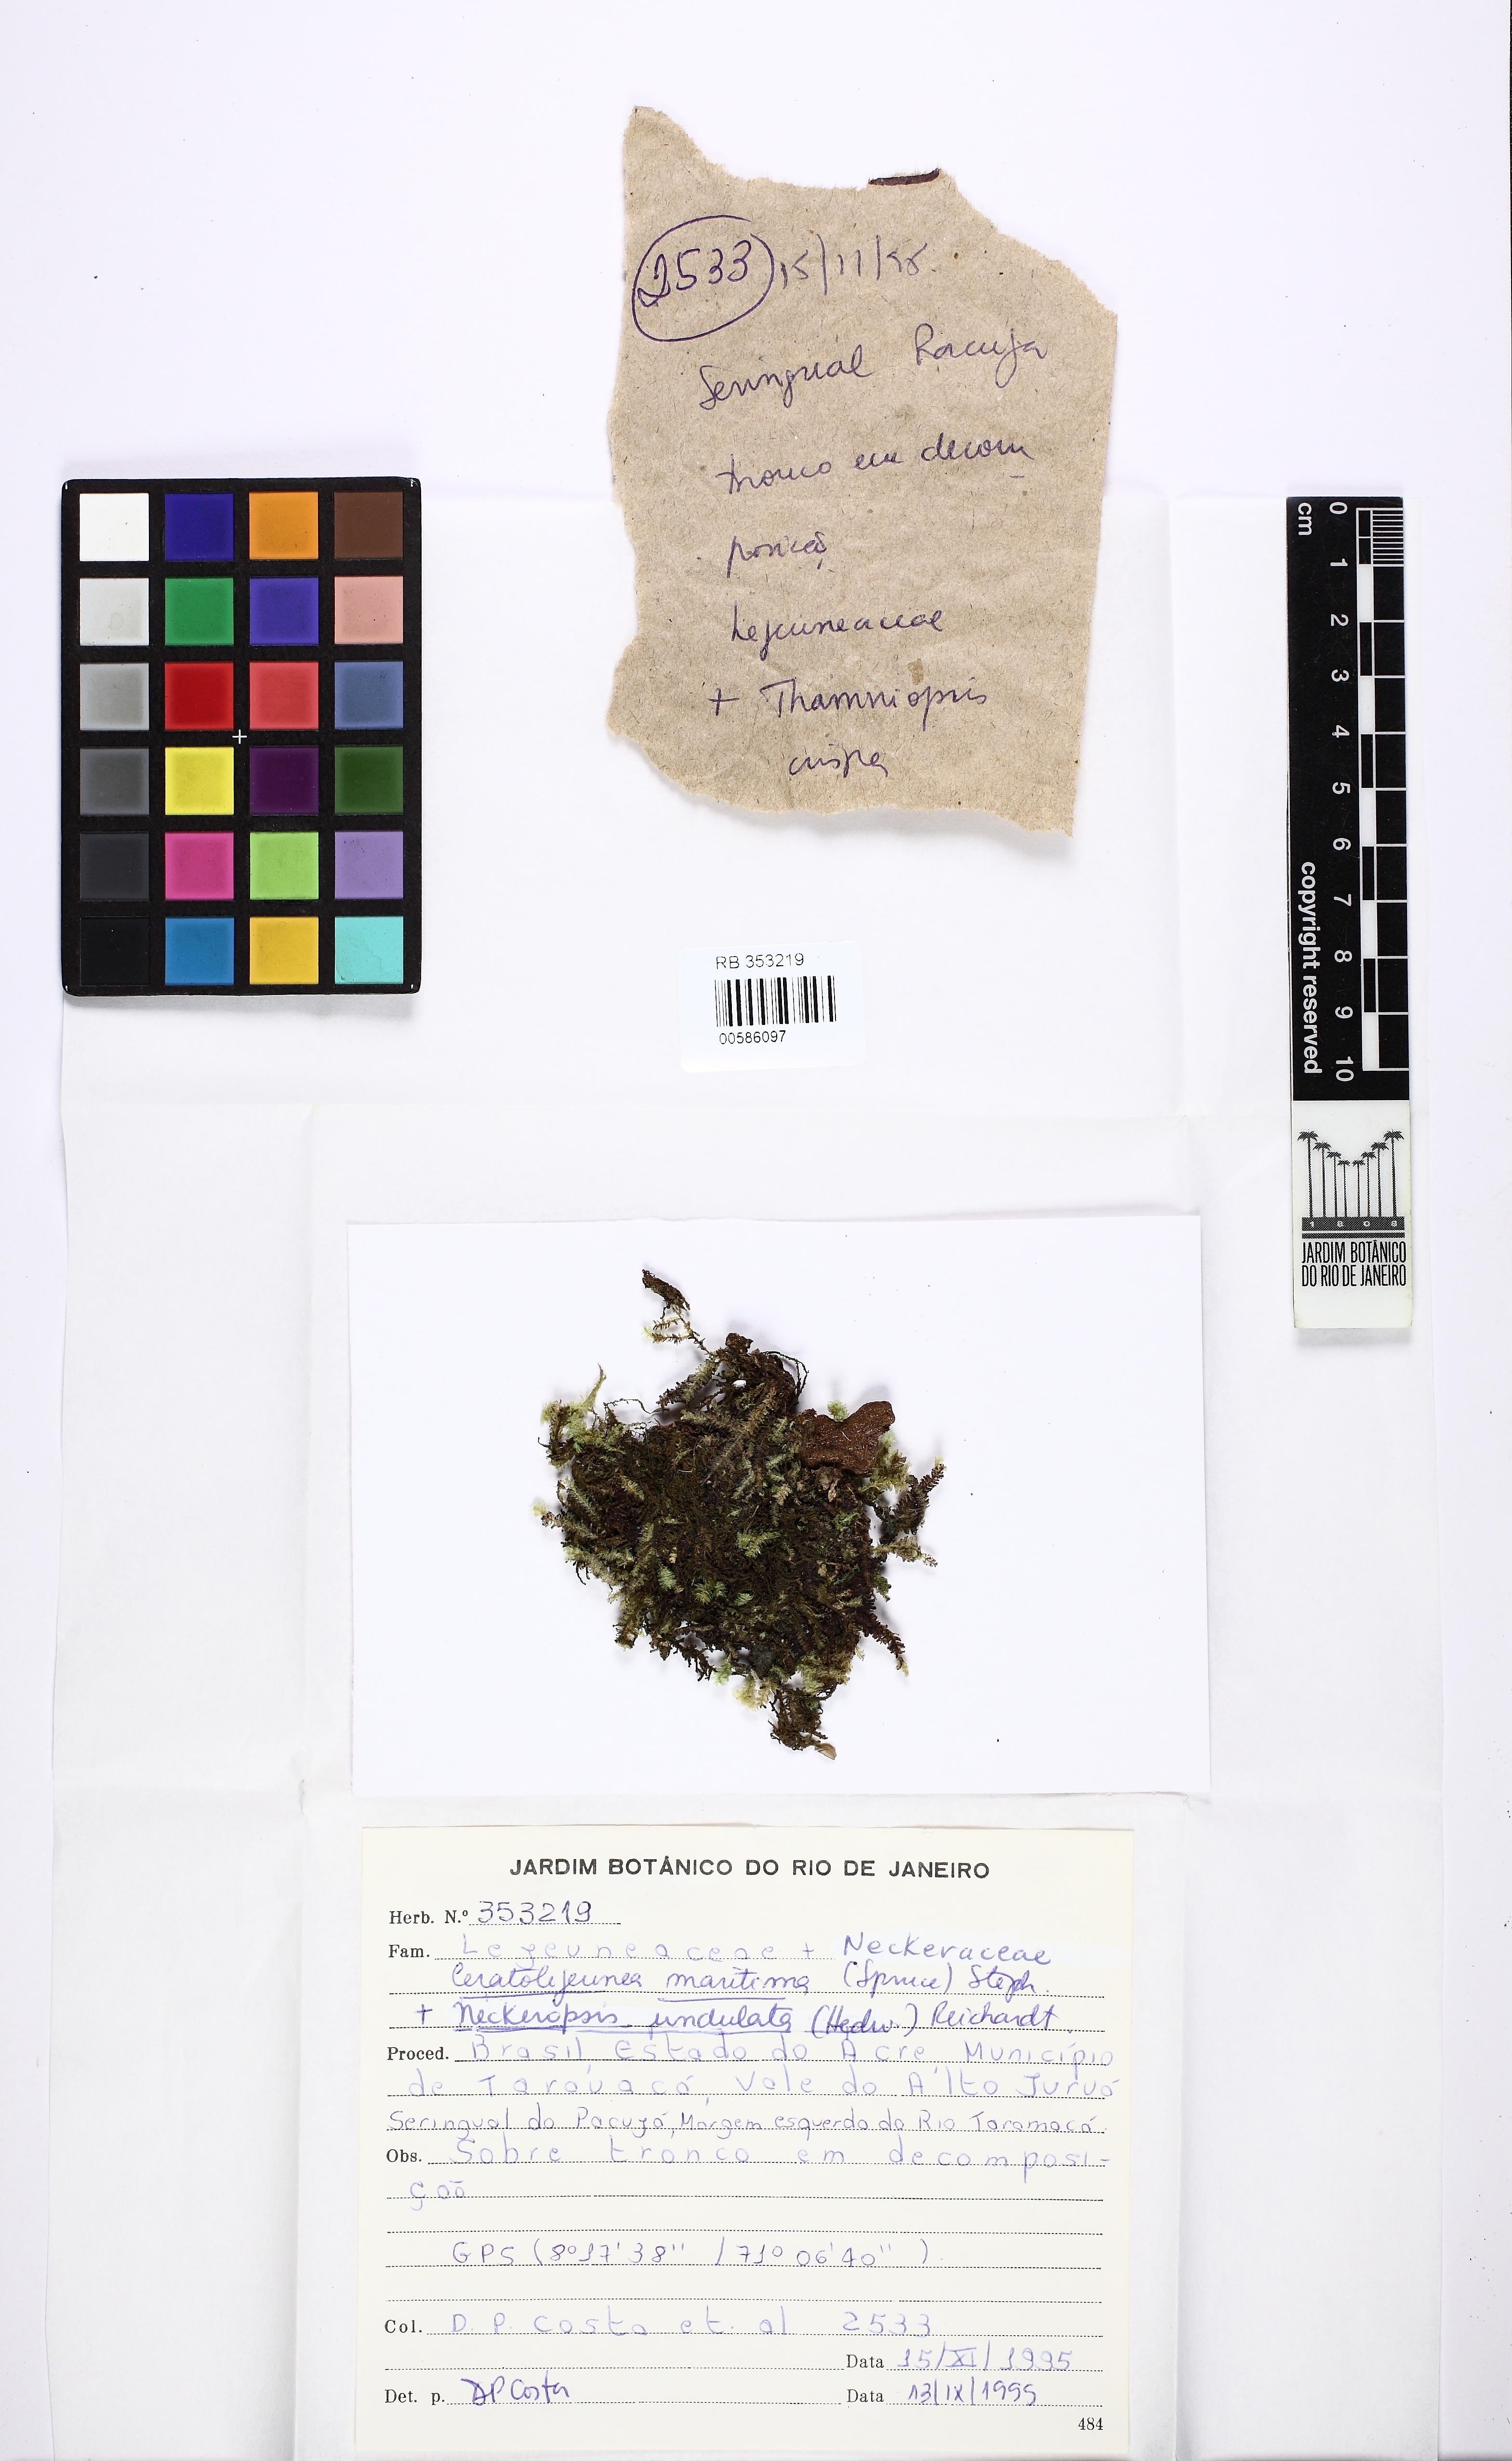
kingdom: Plantae
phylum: Marchantiophyta
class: Jungermanniopsida
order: Porellales
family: Lejeuneaceae
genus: Ceratolejeunea
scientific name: Ceratolejeunea cornuta
